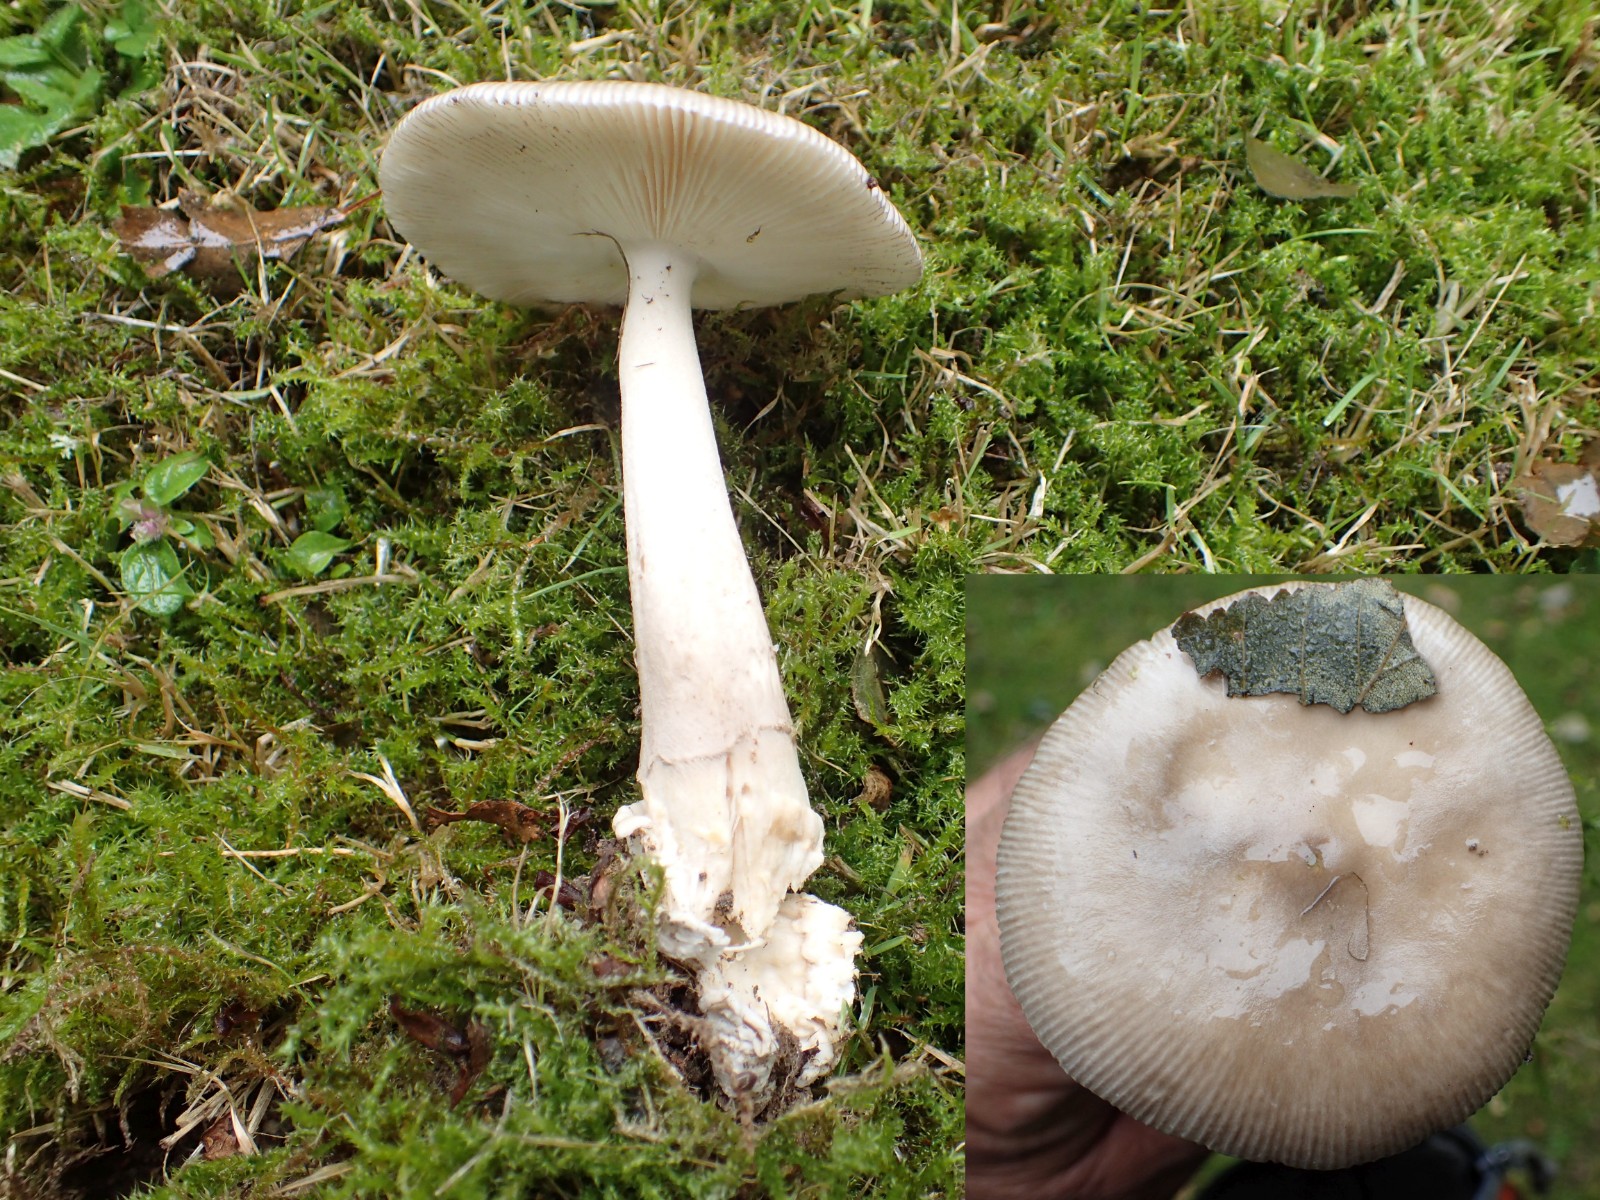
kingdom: Fungi
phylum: Basidiomycota
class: Agaricomycetes
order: Agaricales
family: Amanitaceae
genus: Amanita
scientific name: Amanita
